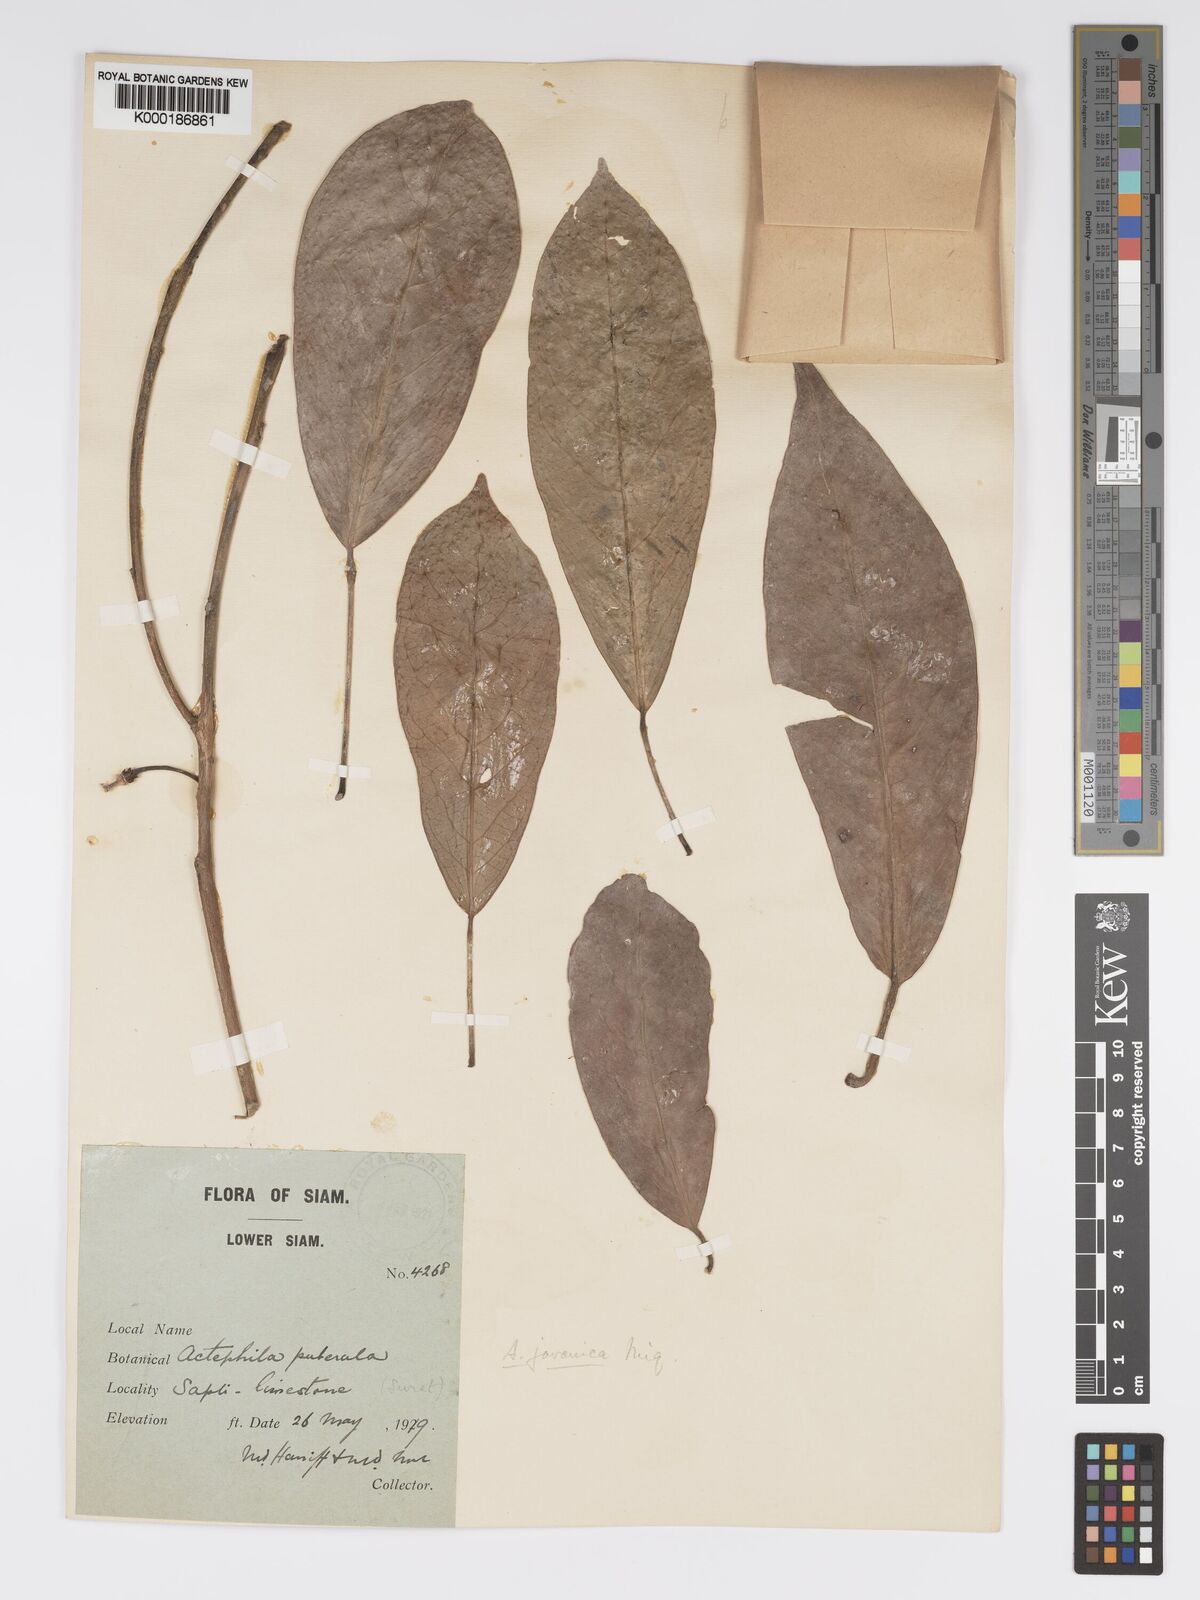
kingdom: Plantae
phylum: Tracheophyta
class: Magnoliopsida
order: Malpighiales
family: Phyllanthaceae
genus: Actephila
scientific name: Actephila
